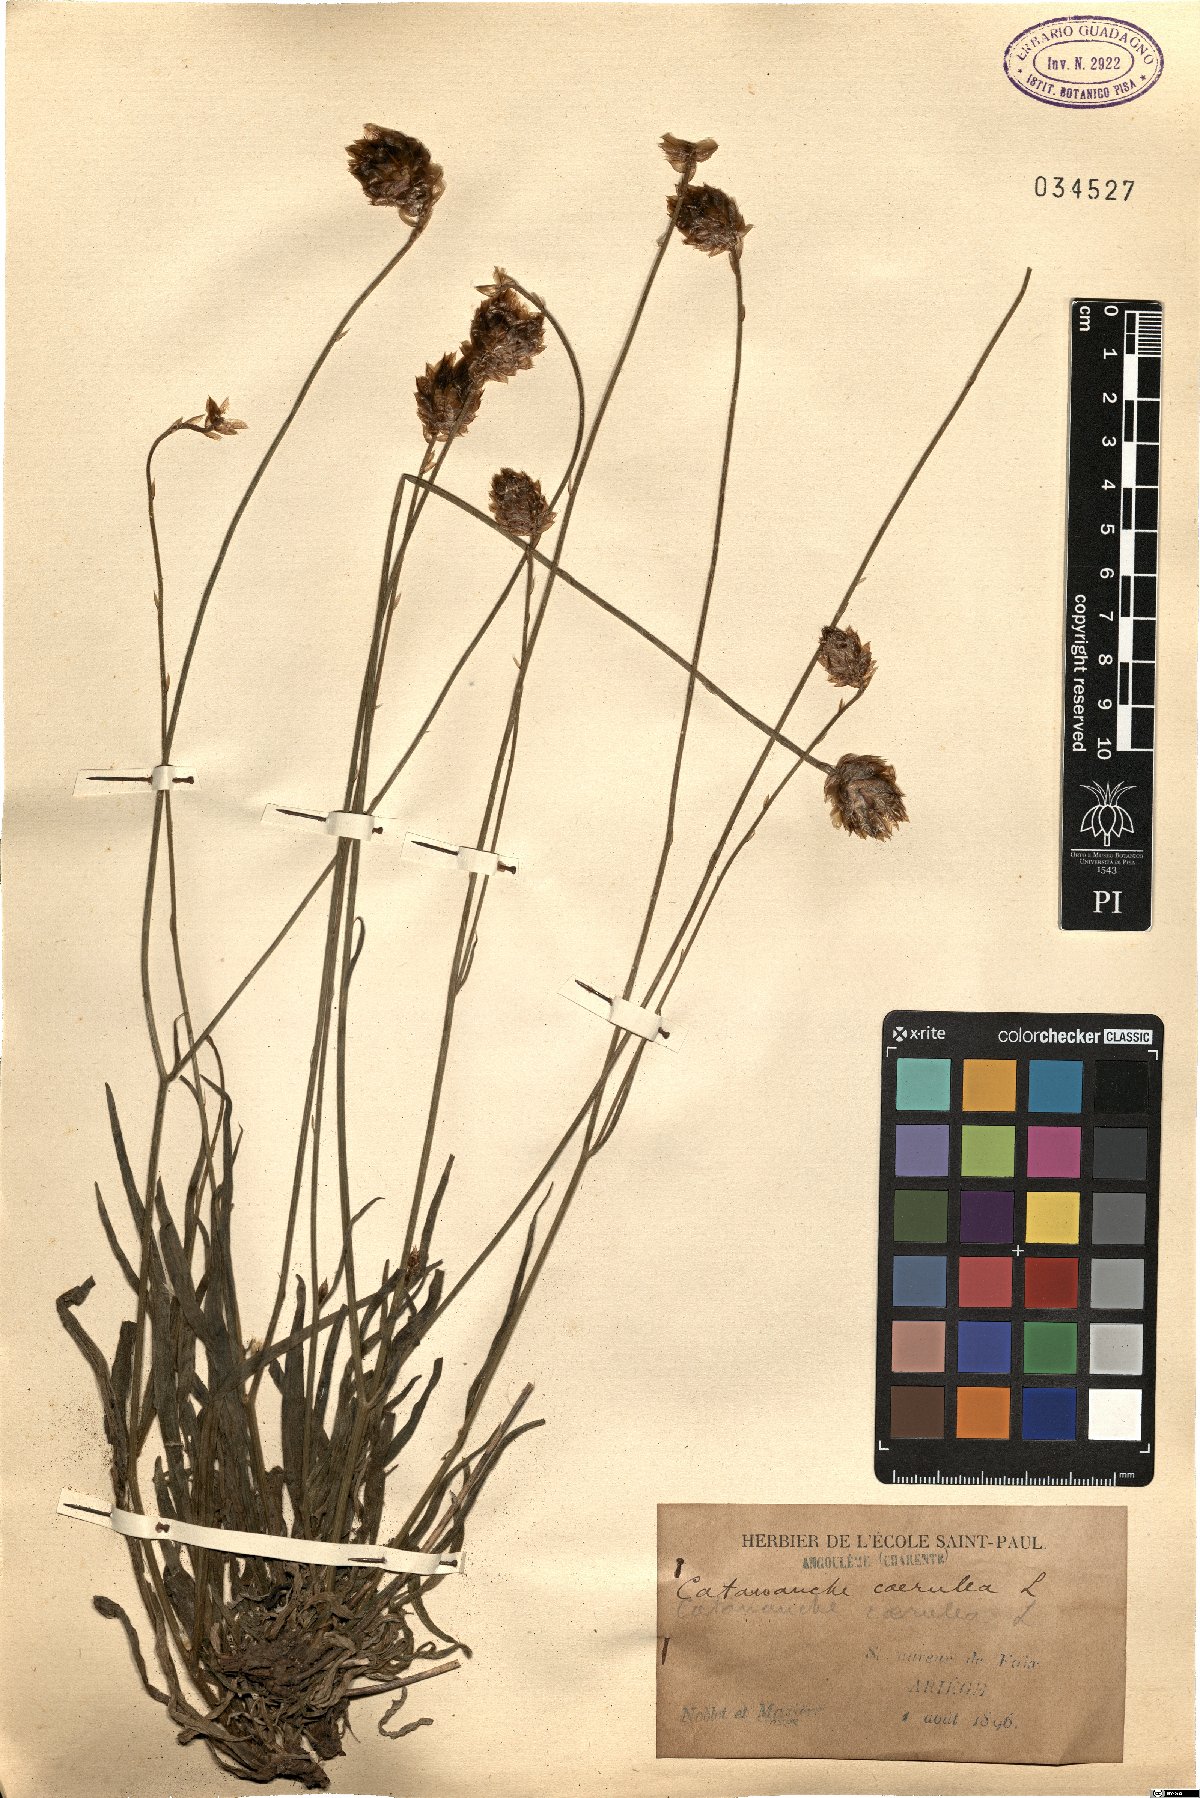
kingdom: Plantae
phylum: Tracheophyta
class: Magnoliopsida
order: Asterales
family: Asteraceae
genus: Catananche
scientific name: Catananche caerulea
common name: Blue cupidone
